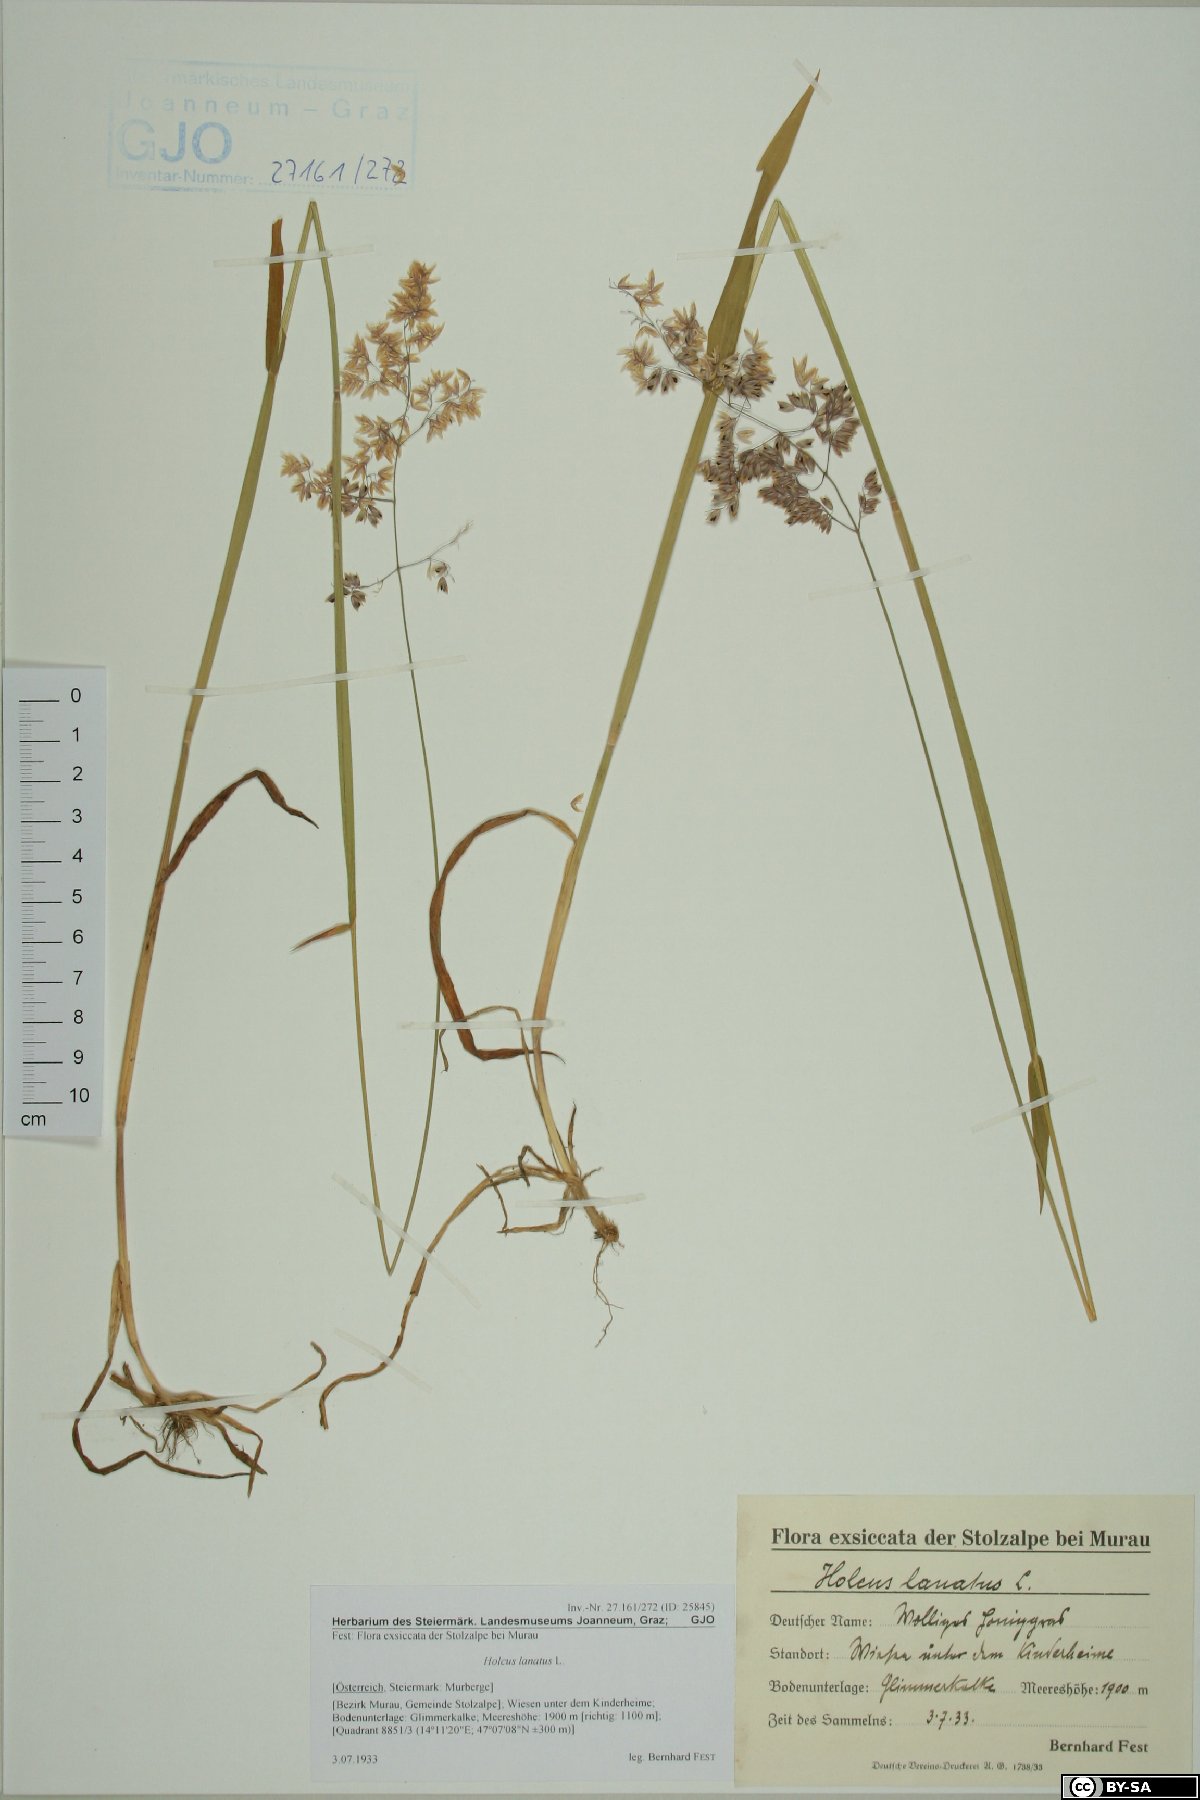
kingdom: Plantae
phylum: Tracheophyta
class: Liliopsida
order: Poales
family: Poaceae
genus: Holcus
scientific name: Holcus lanatus
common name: Yorkshire-fog
